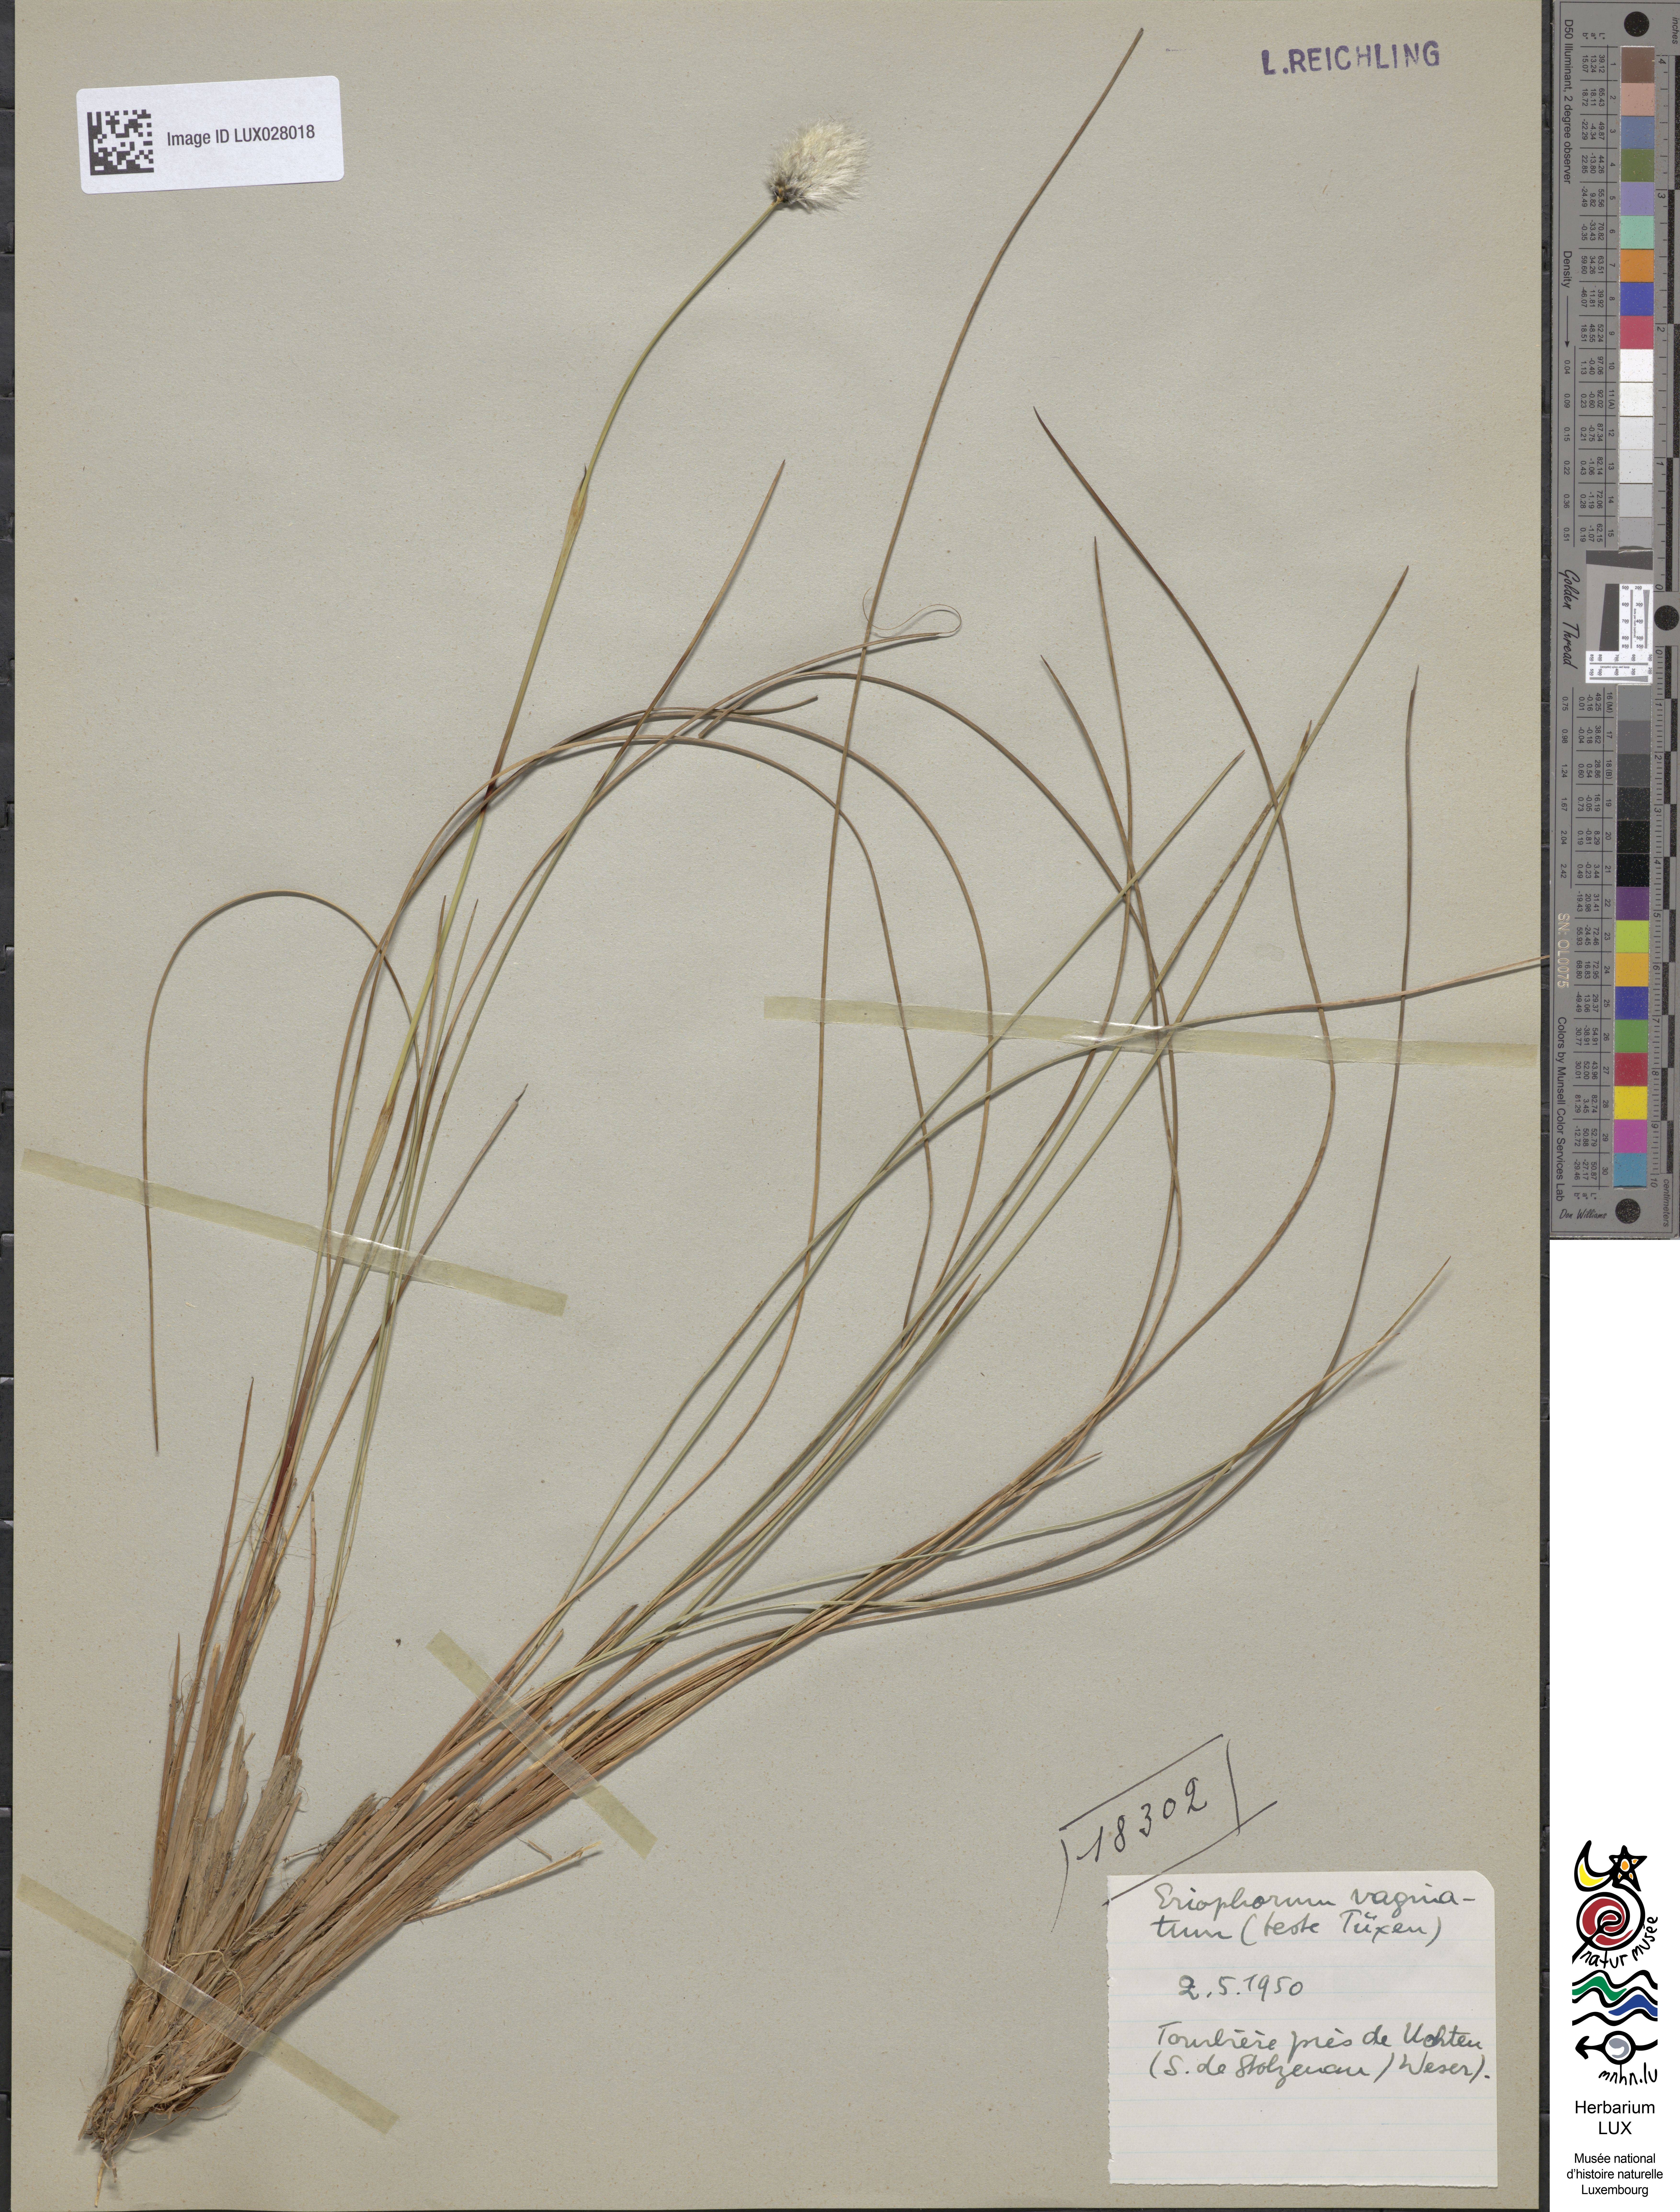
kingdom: Plantae
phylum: Tracheophyta
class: Liliopsida
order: Poales
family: Cyperaceae
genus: Eriophorum
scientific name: Eriophorum vaginatum
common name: Hare's-tail cottongrass
